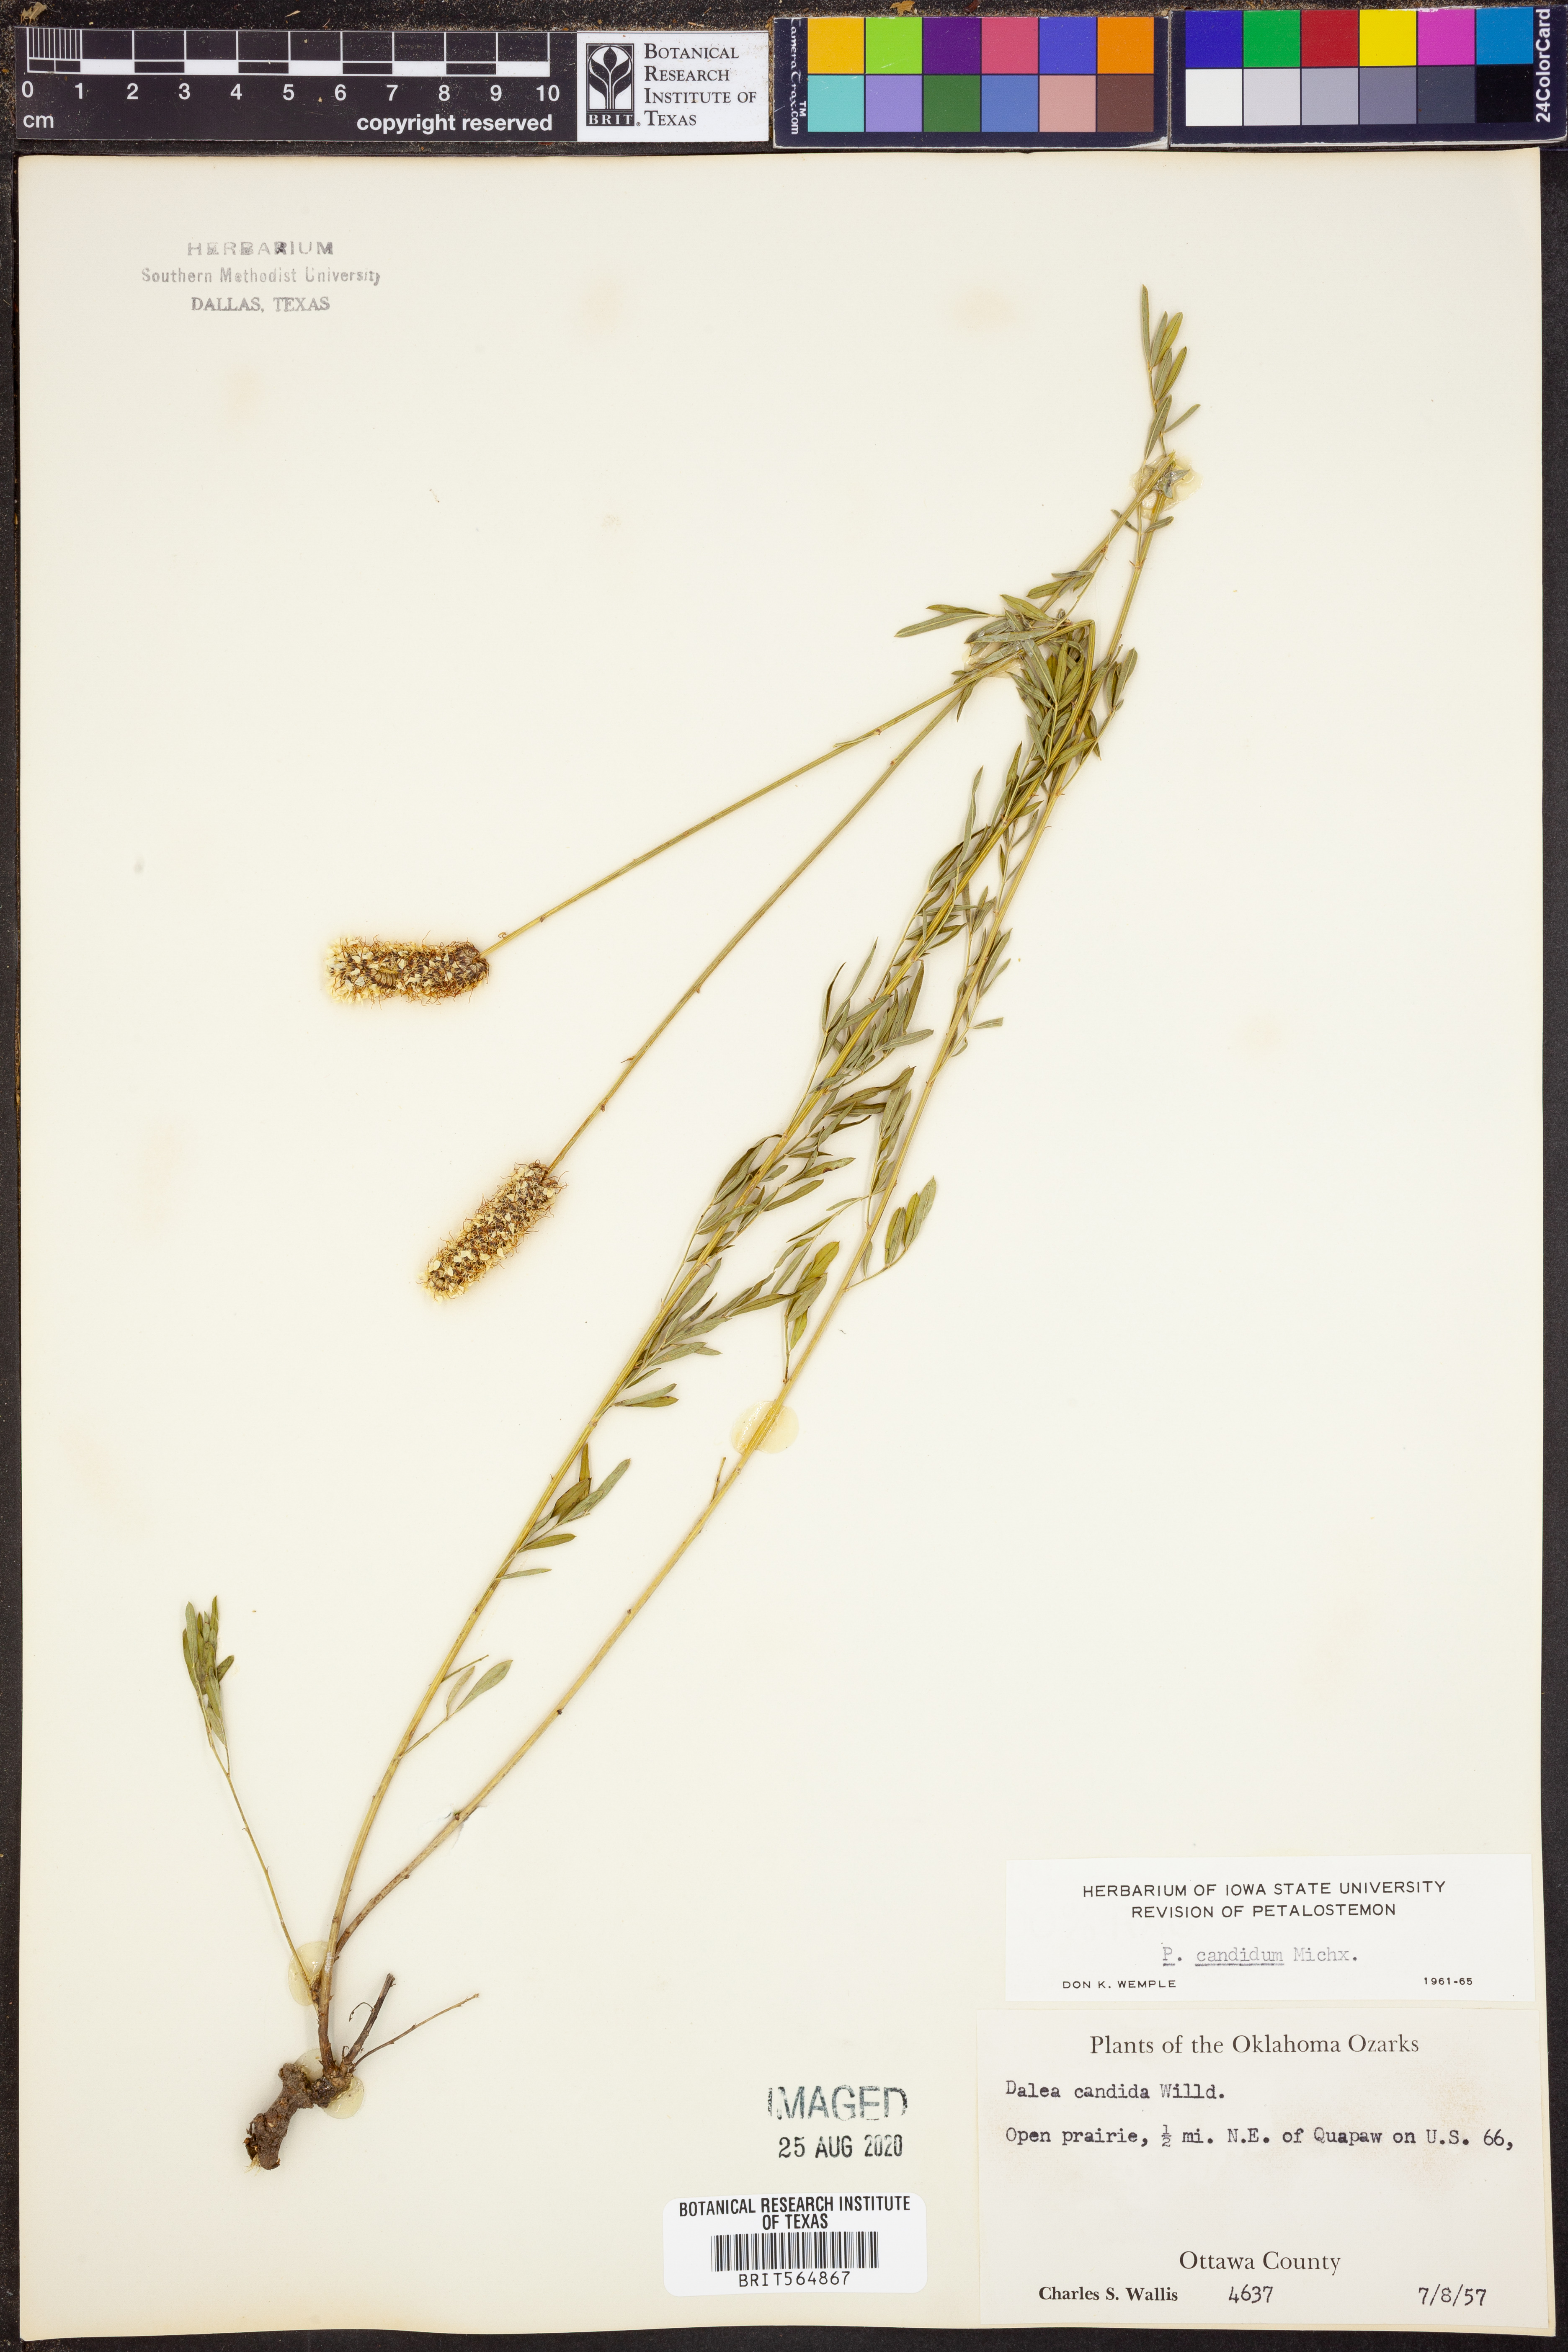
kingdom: Plantae
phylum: Tracheophyta
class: Magnoliopsida
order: Fabales
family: Fabaceae
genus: Dalea
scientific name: Dalea candida
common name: White prairie-clover
